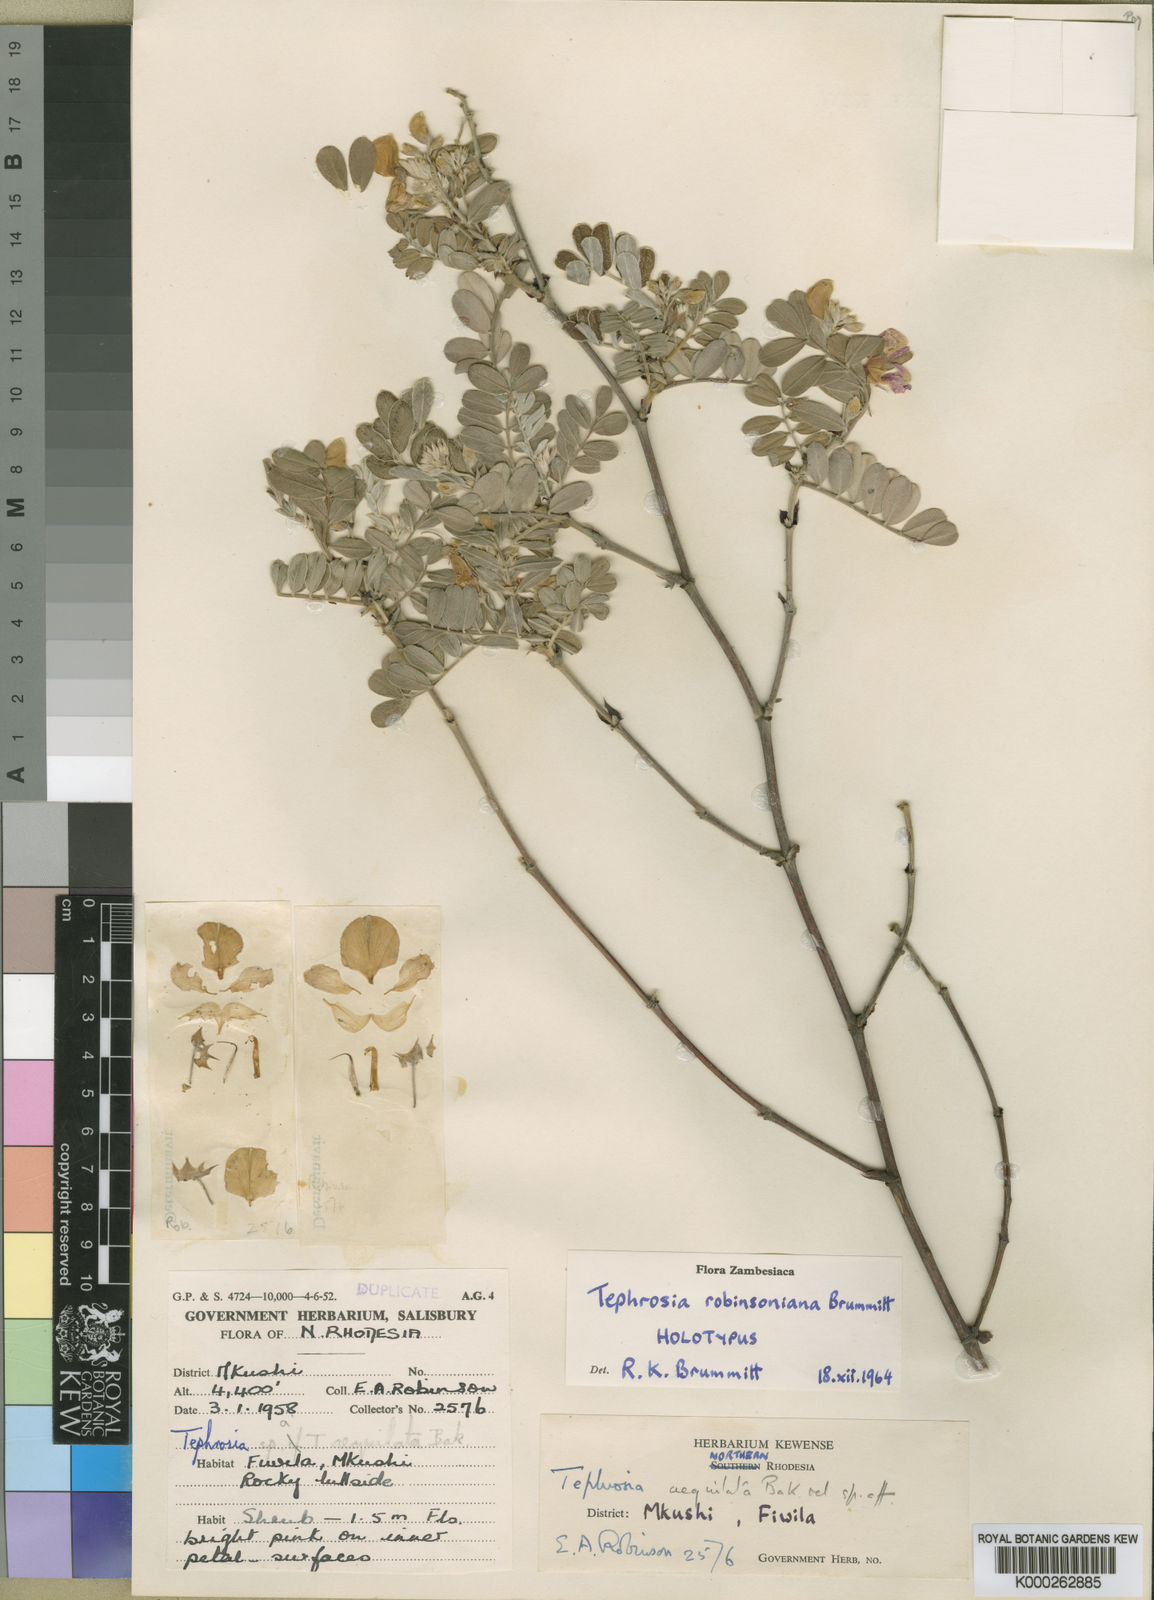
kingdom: Plantae
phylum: Tracheophyta
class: Magnoliopsida
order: Fabales
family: Fabaceae
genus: Tephrosia
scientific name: Tephrosia robinsoniana
